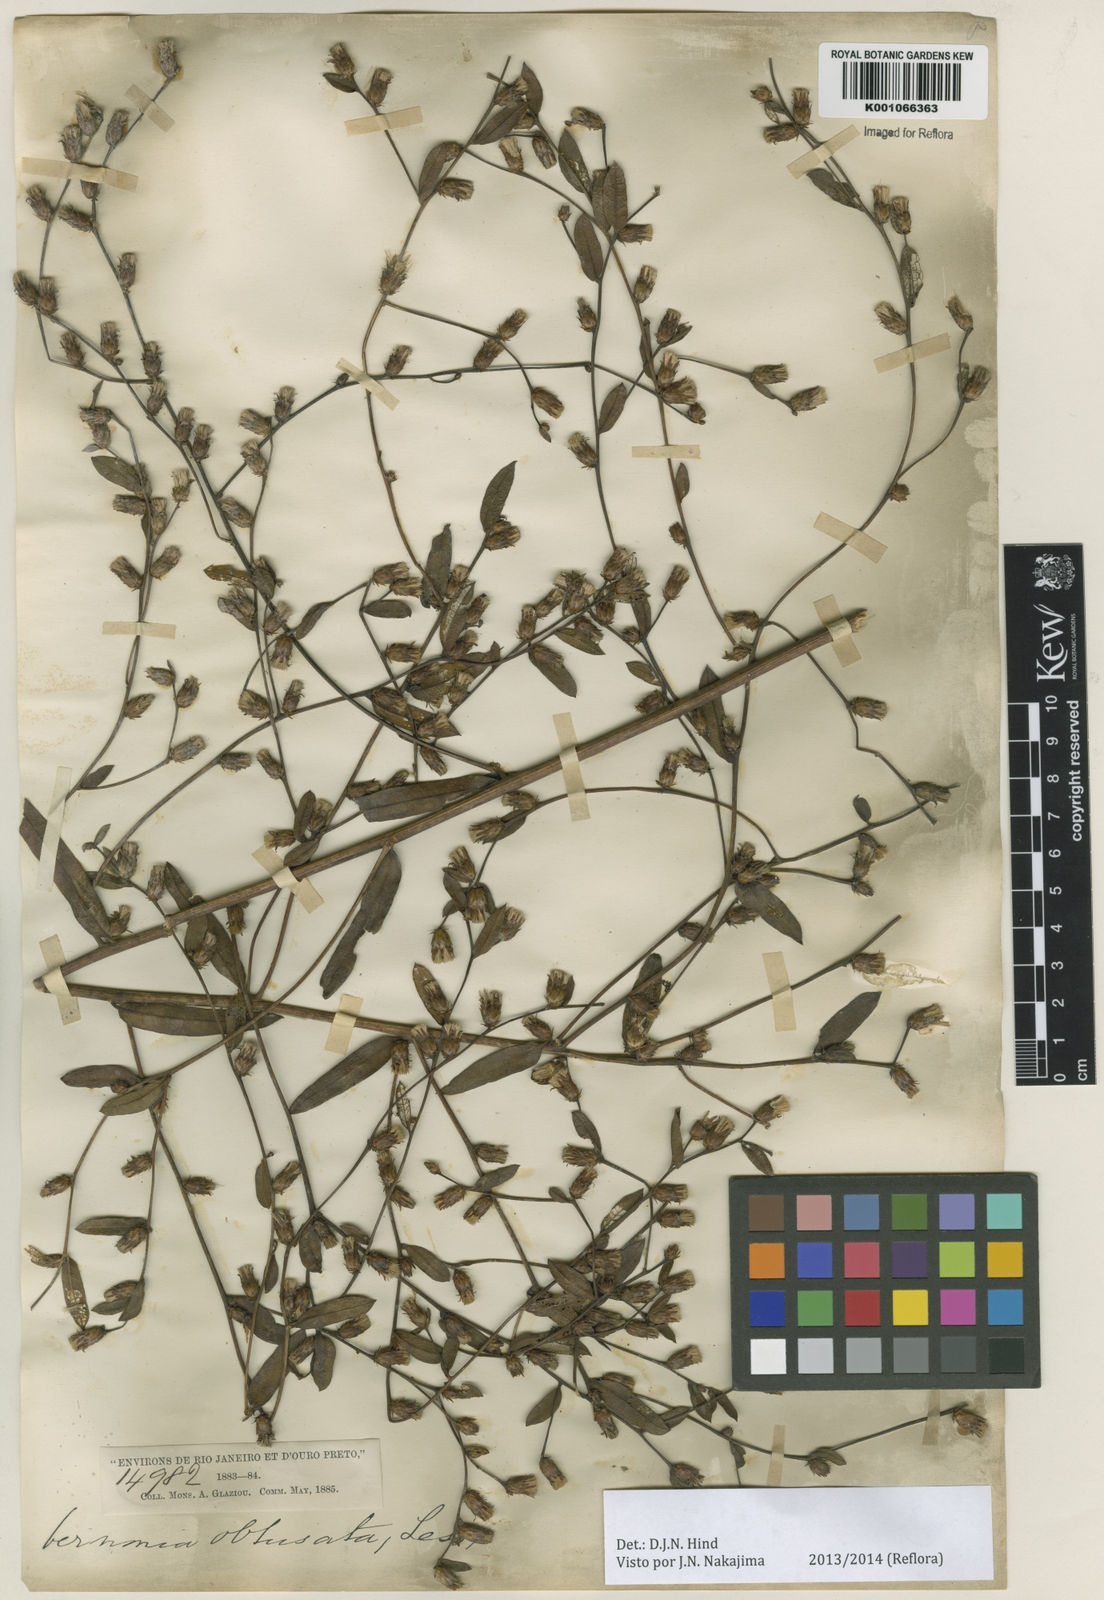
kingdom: Plantae
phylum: Tracheophyta
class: Magnoliopsida
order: Asterales
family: Asteraceae
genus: Lessingianthus
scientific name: Lessingianthus bupleurifolius
